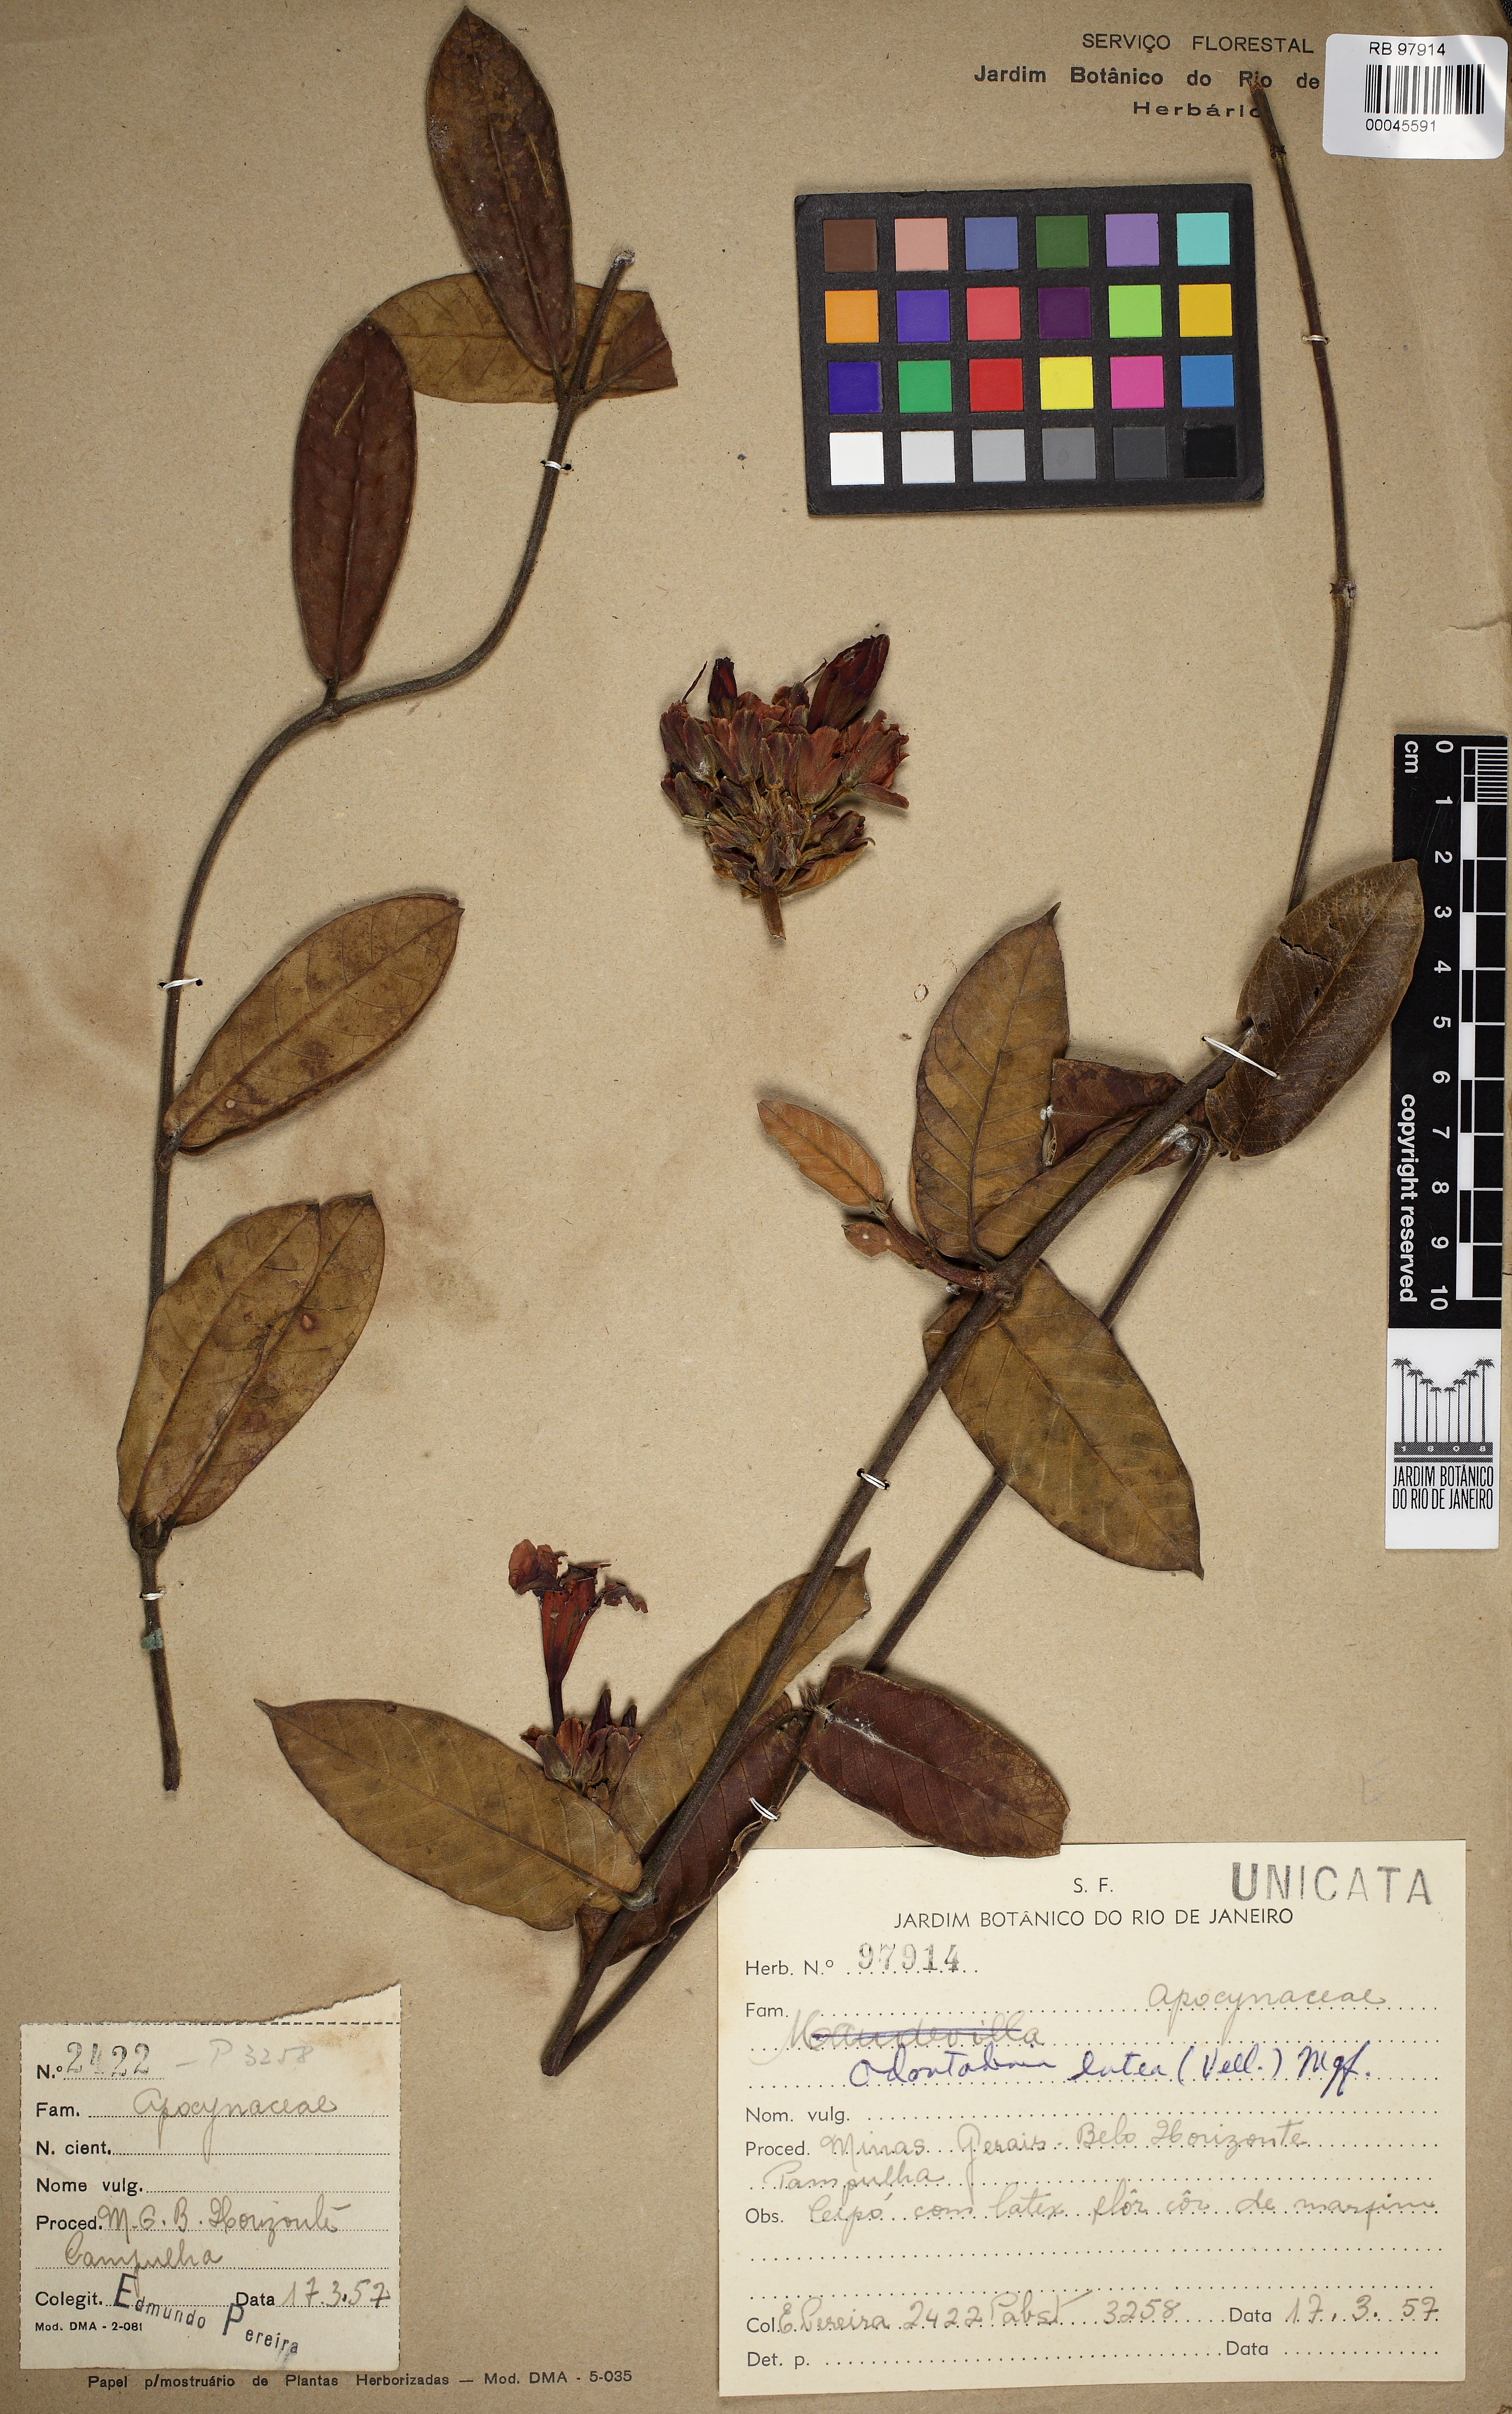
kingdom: Plantae
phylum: Tracheophyta
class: Magnoliopsida
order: Gentianales
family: Apocynaceae
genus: Odontadenia
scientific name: Odontadenia lutea
